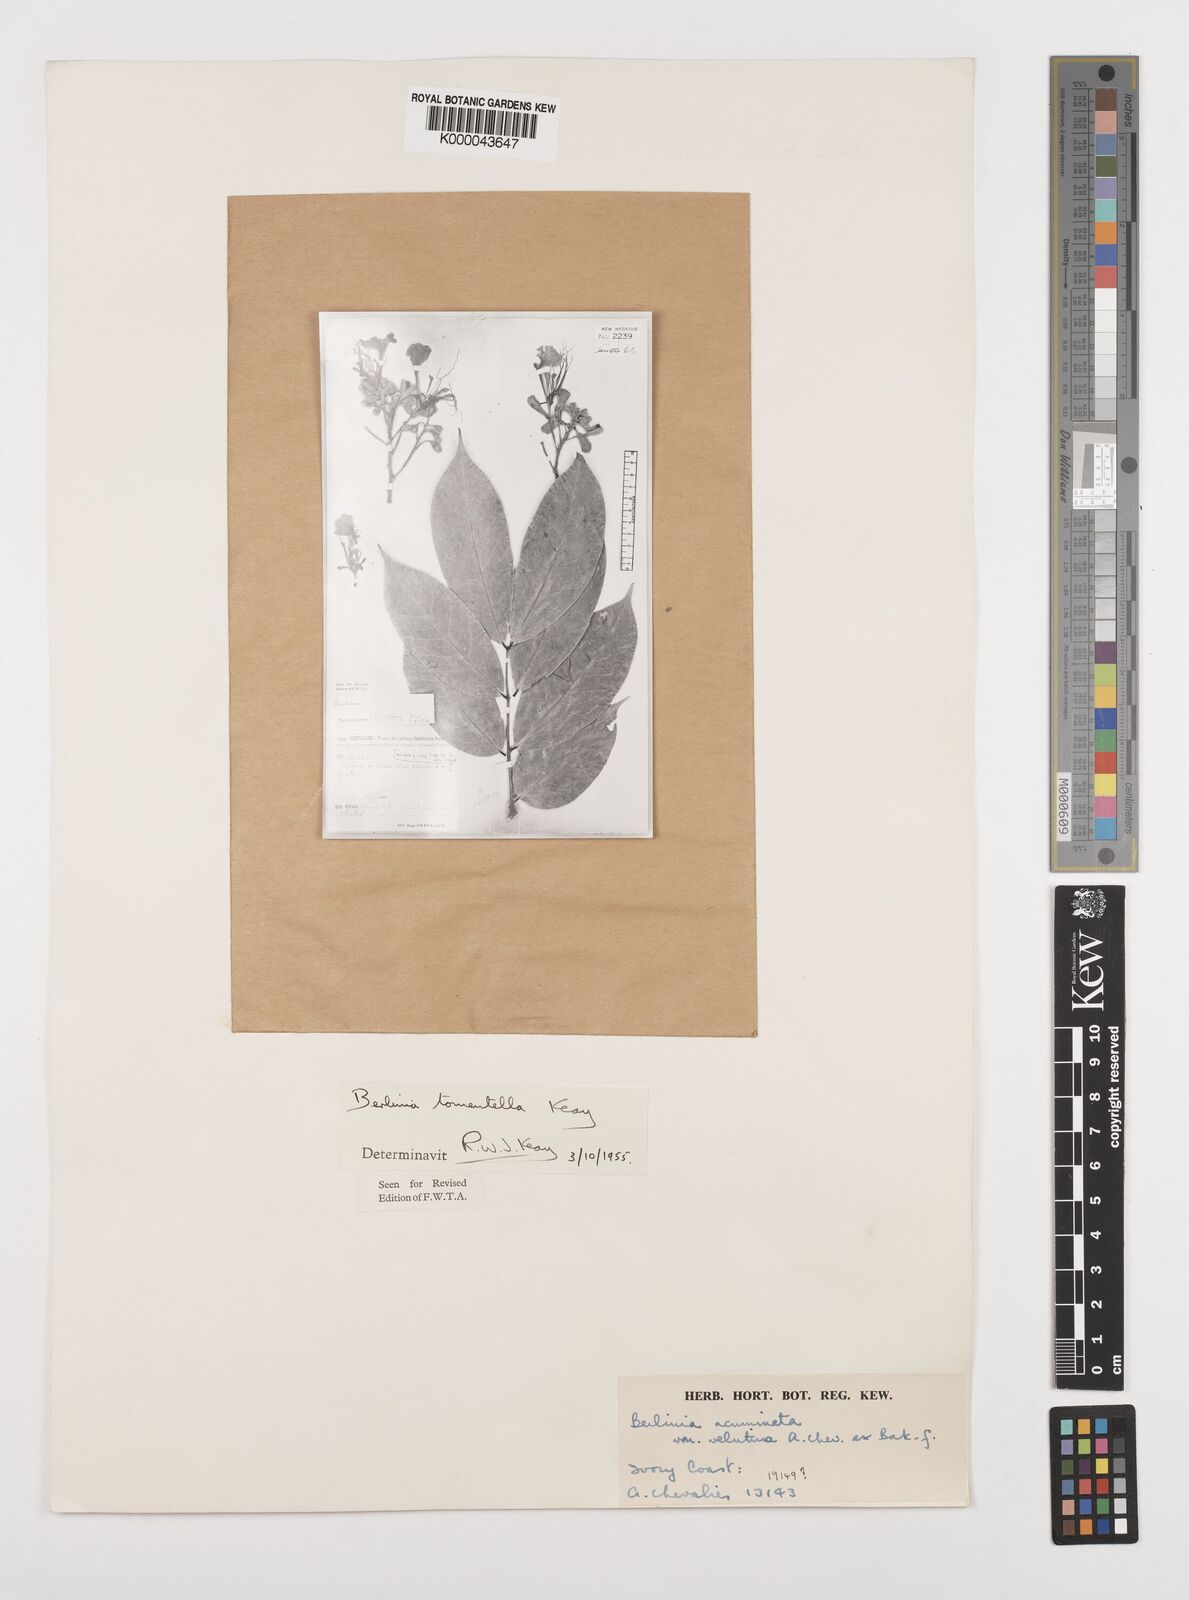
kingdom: Plantae
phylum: Tracheophyta
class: Magnoliopsida
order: Fabales
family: Fabaceae
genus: Berlinia
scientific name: Berlinia tomentella
